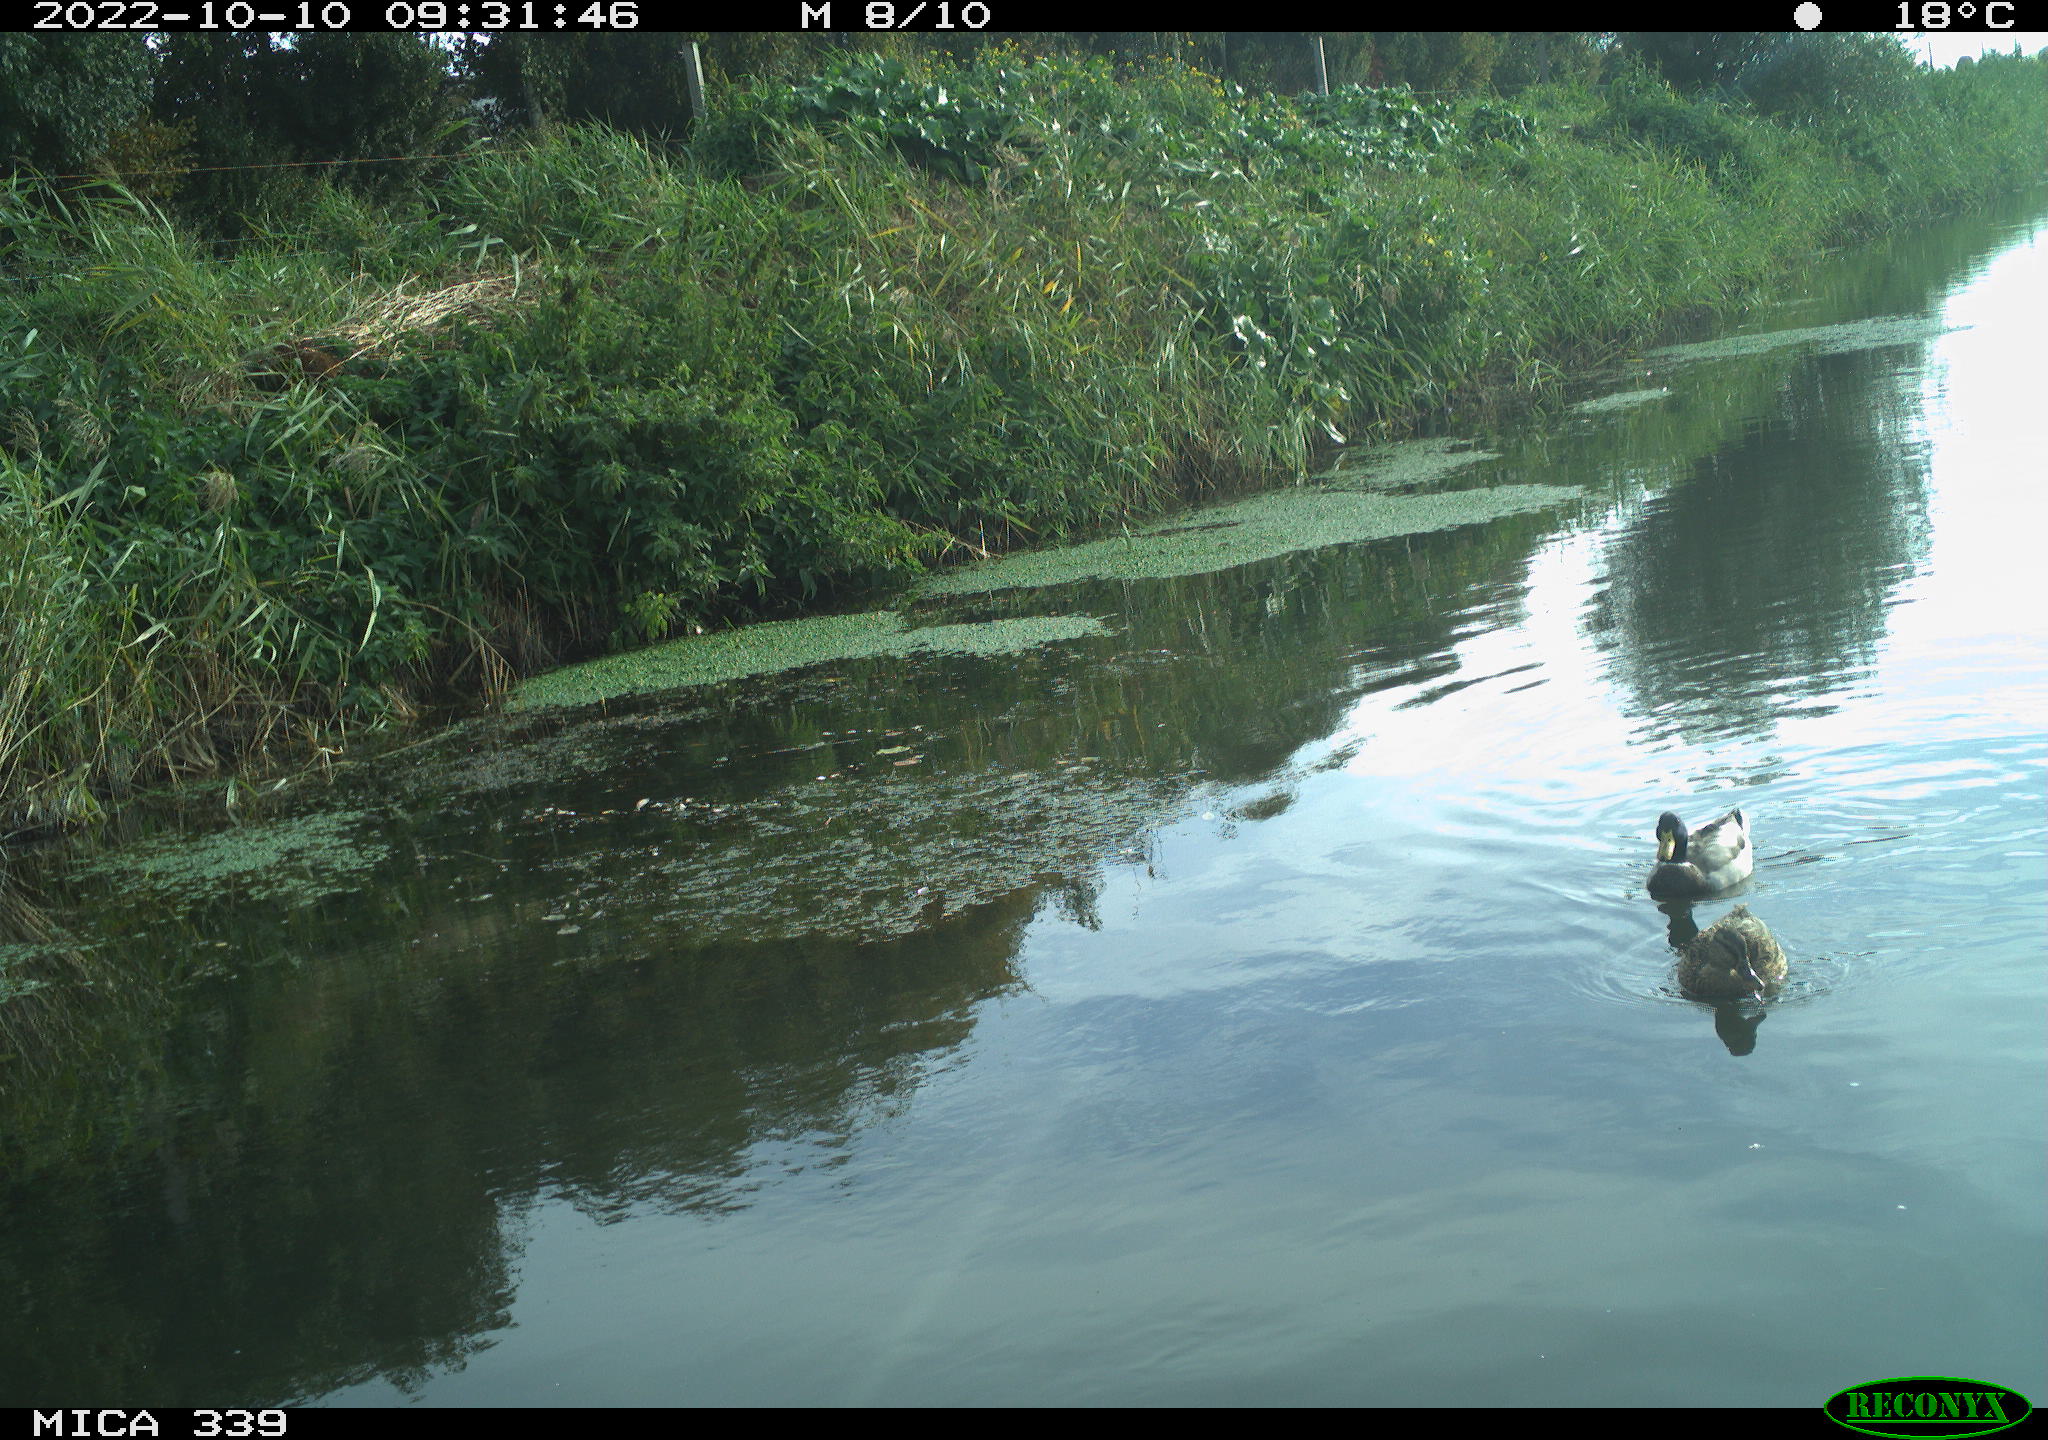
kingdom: Animalia
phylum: Chordata
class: Aves
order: Anseriformes
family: Anatidae
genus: Anas
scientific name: Anas platyrhynchos
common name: Mallard
